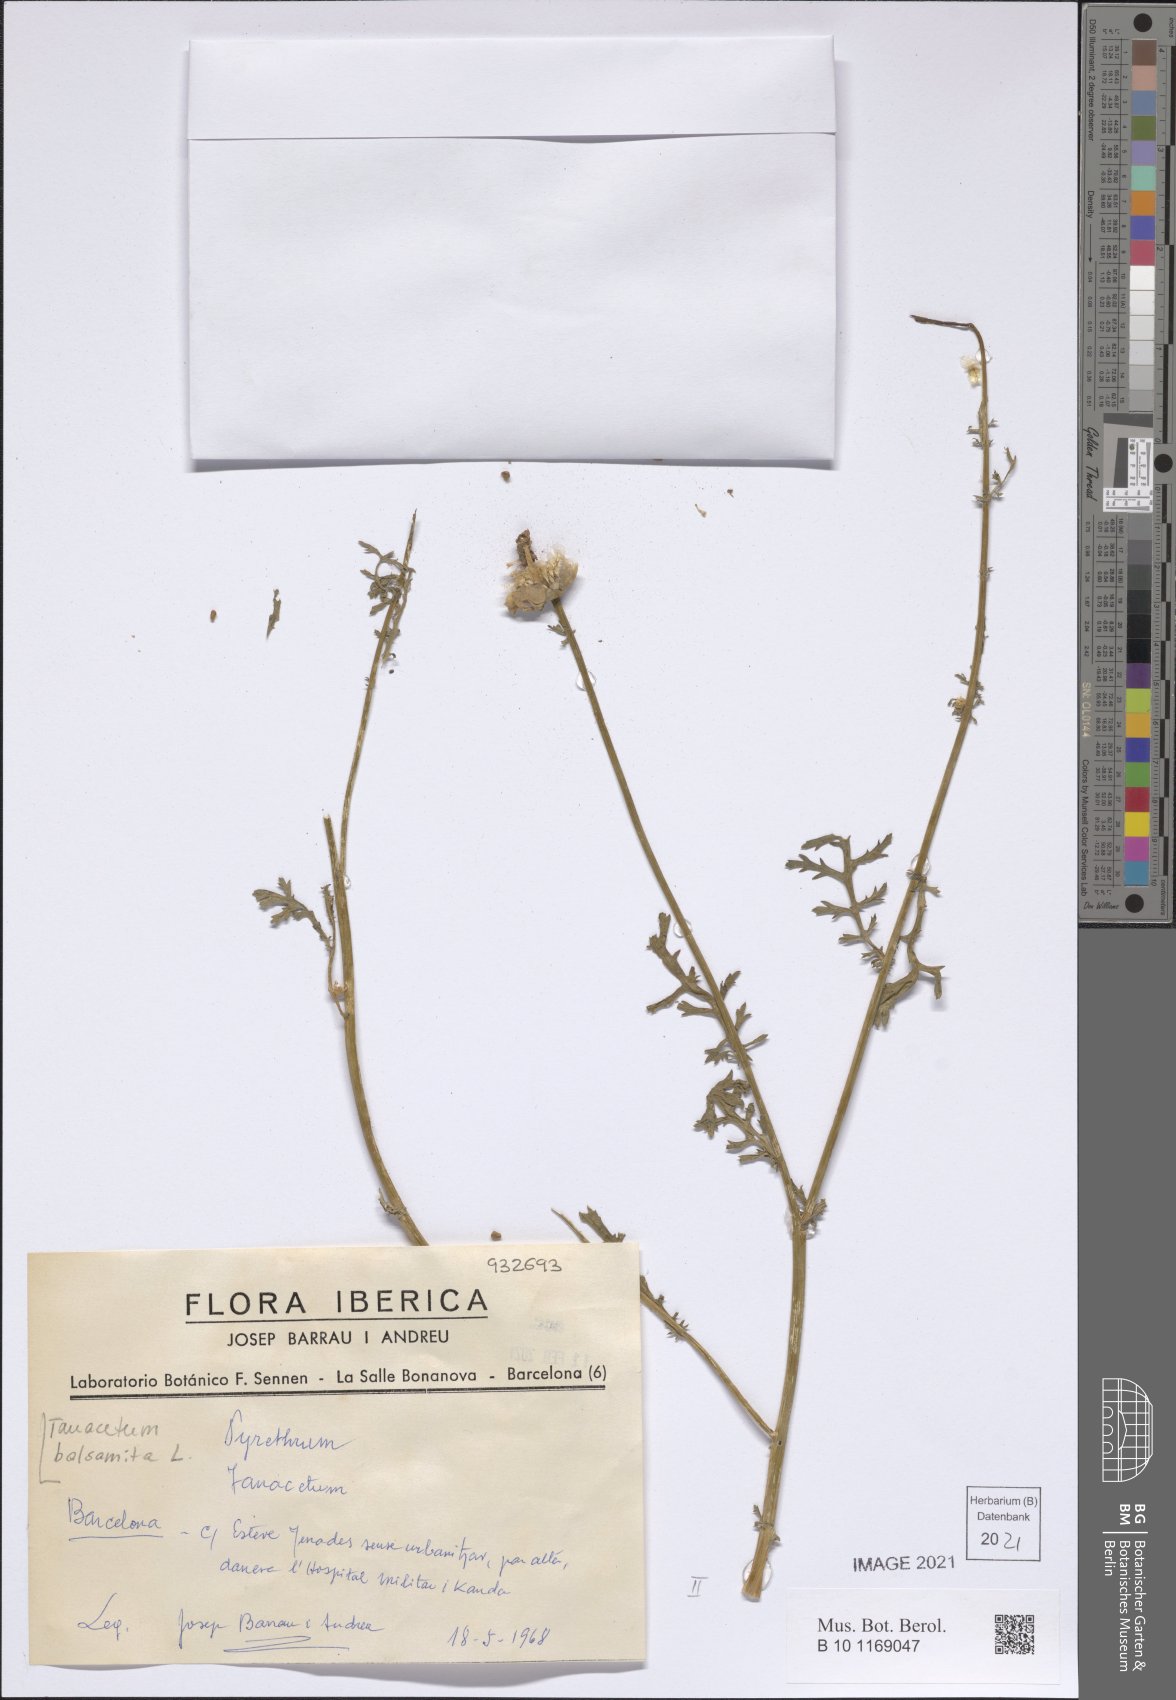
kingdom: Plantae
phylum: Tracheophyta
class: Magnoliopsida
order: Asterales
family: Asteraceae
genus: Tanacetum
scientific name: Tanacetum balsamita
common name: Costmary
